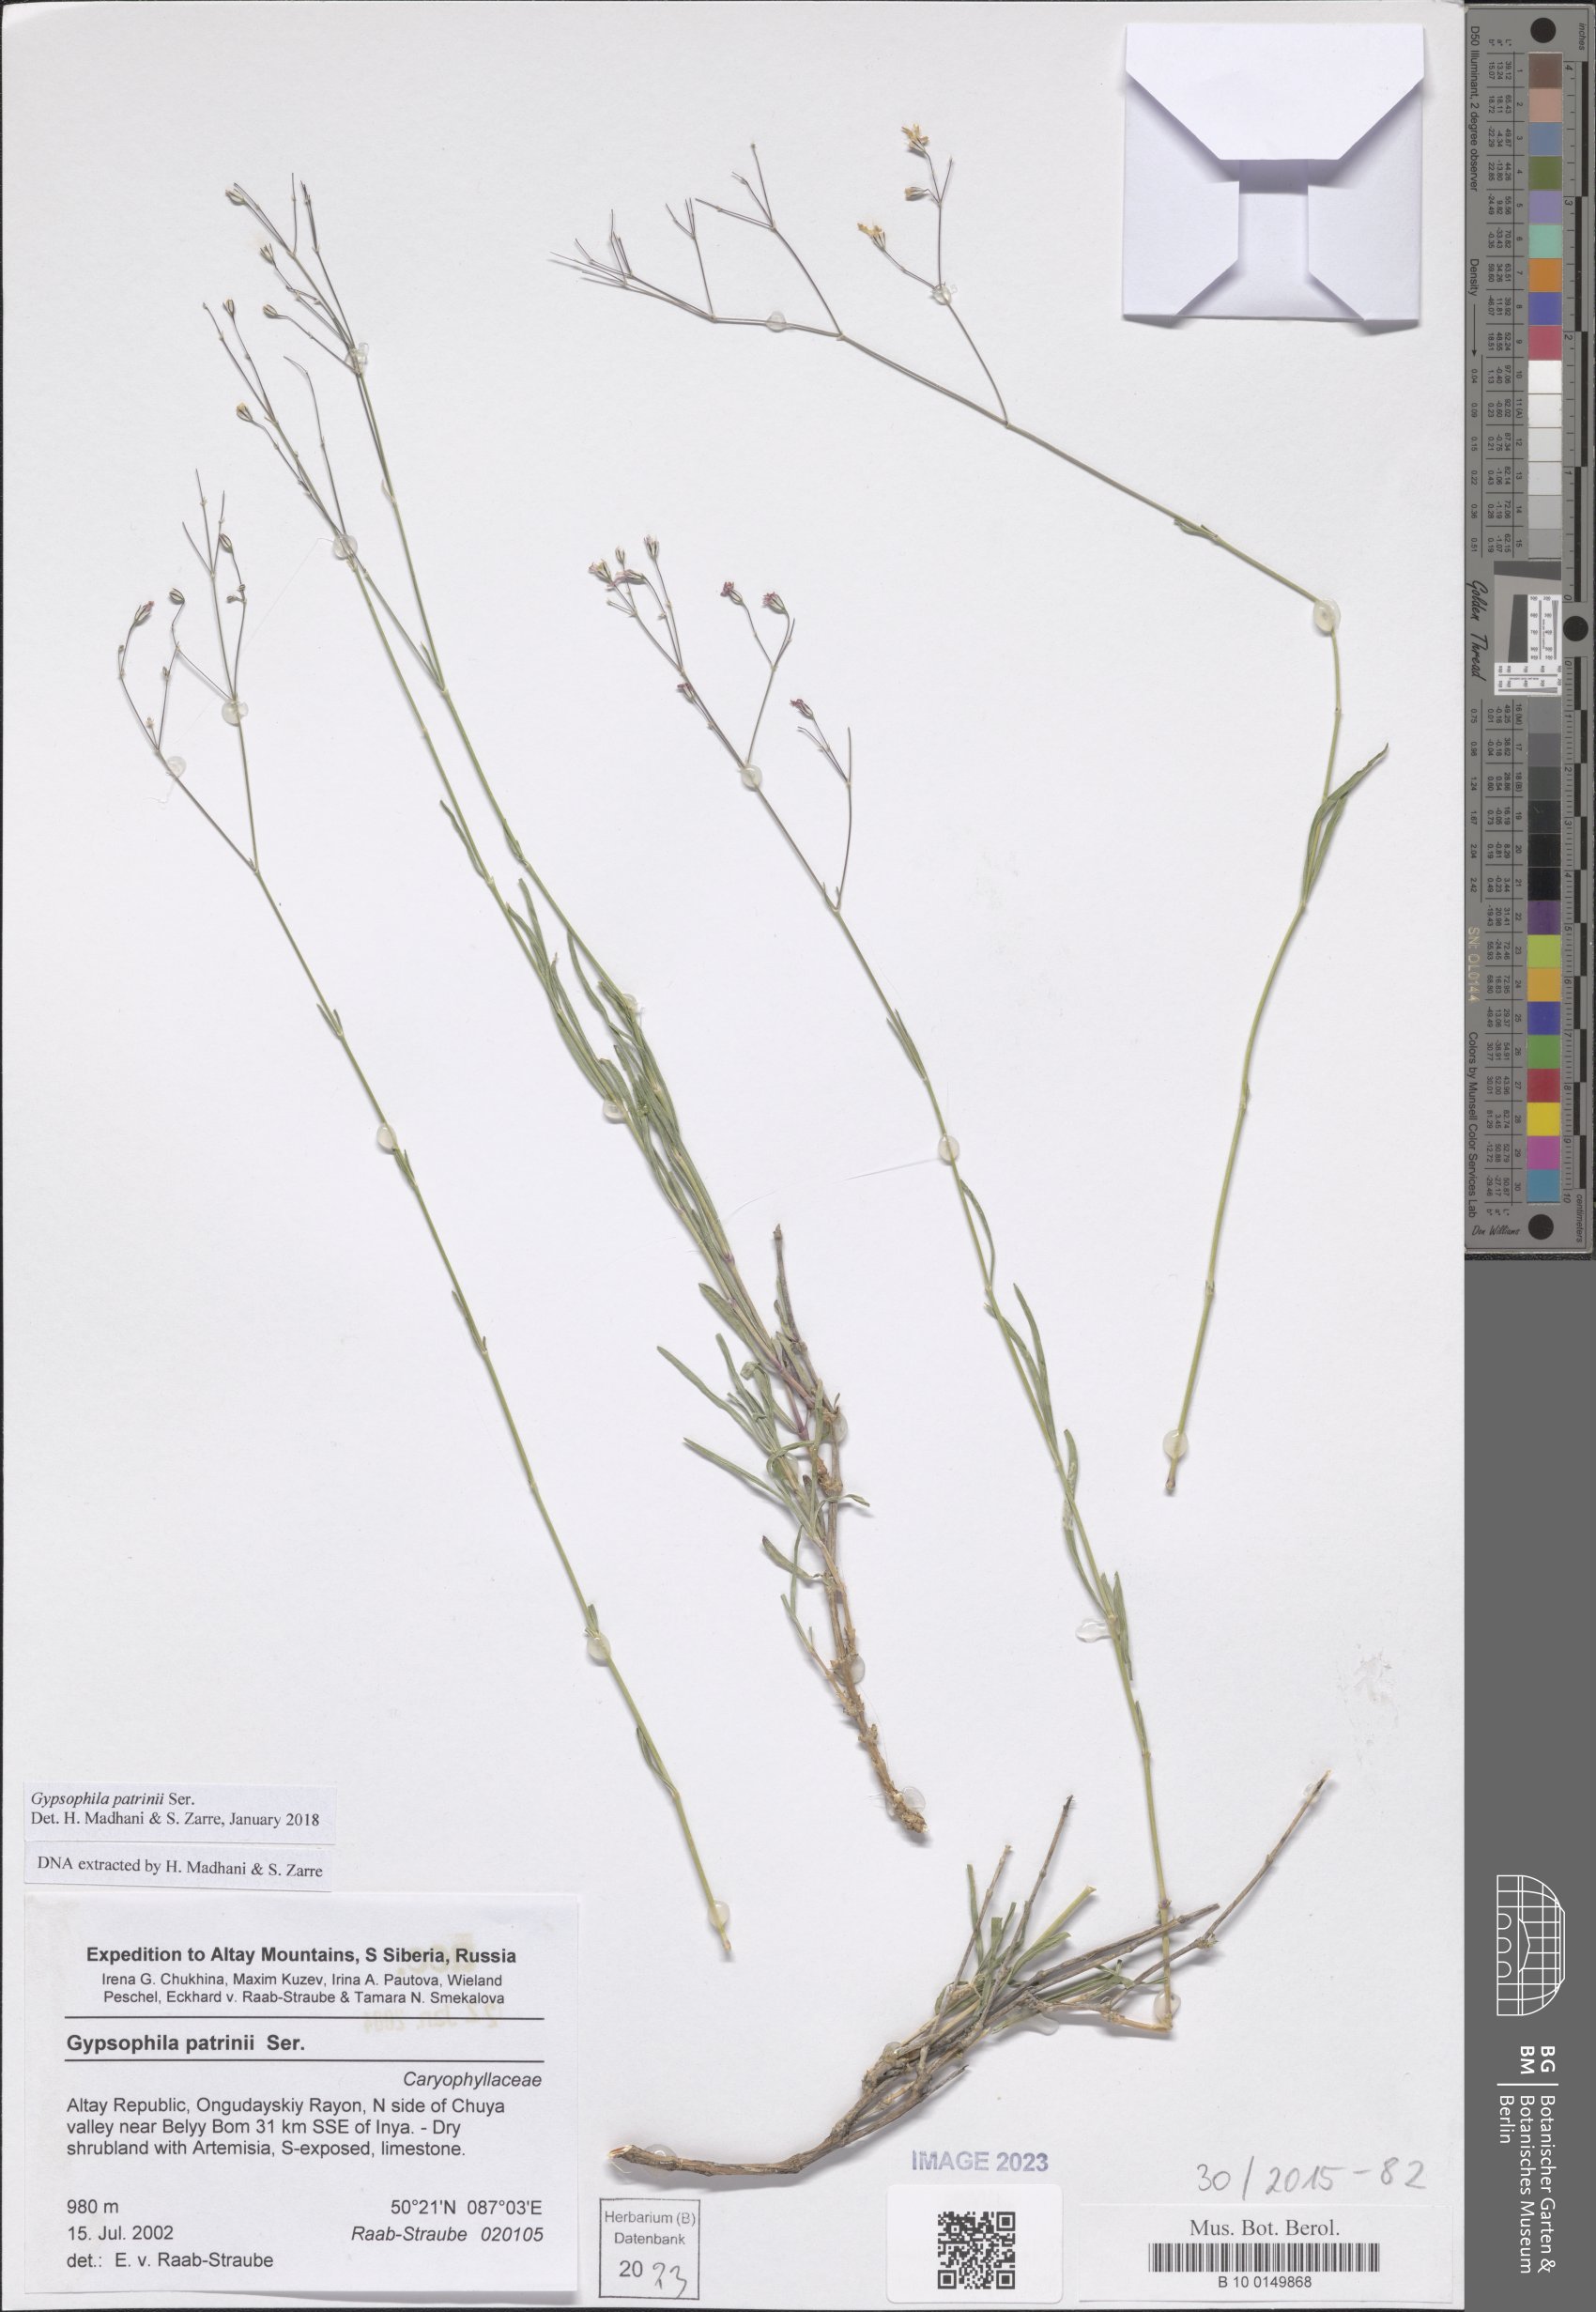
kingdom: Plantae
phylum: Tracheophyta
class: Magnoliopsida
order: Caryophyllales
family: Caryophyllaceae
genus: Gypsophila
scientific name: Gypsophila patrinii
